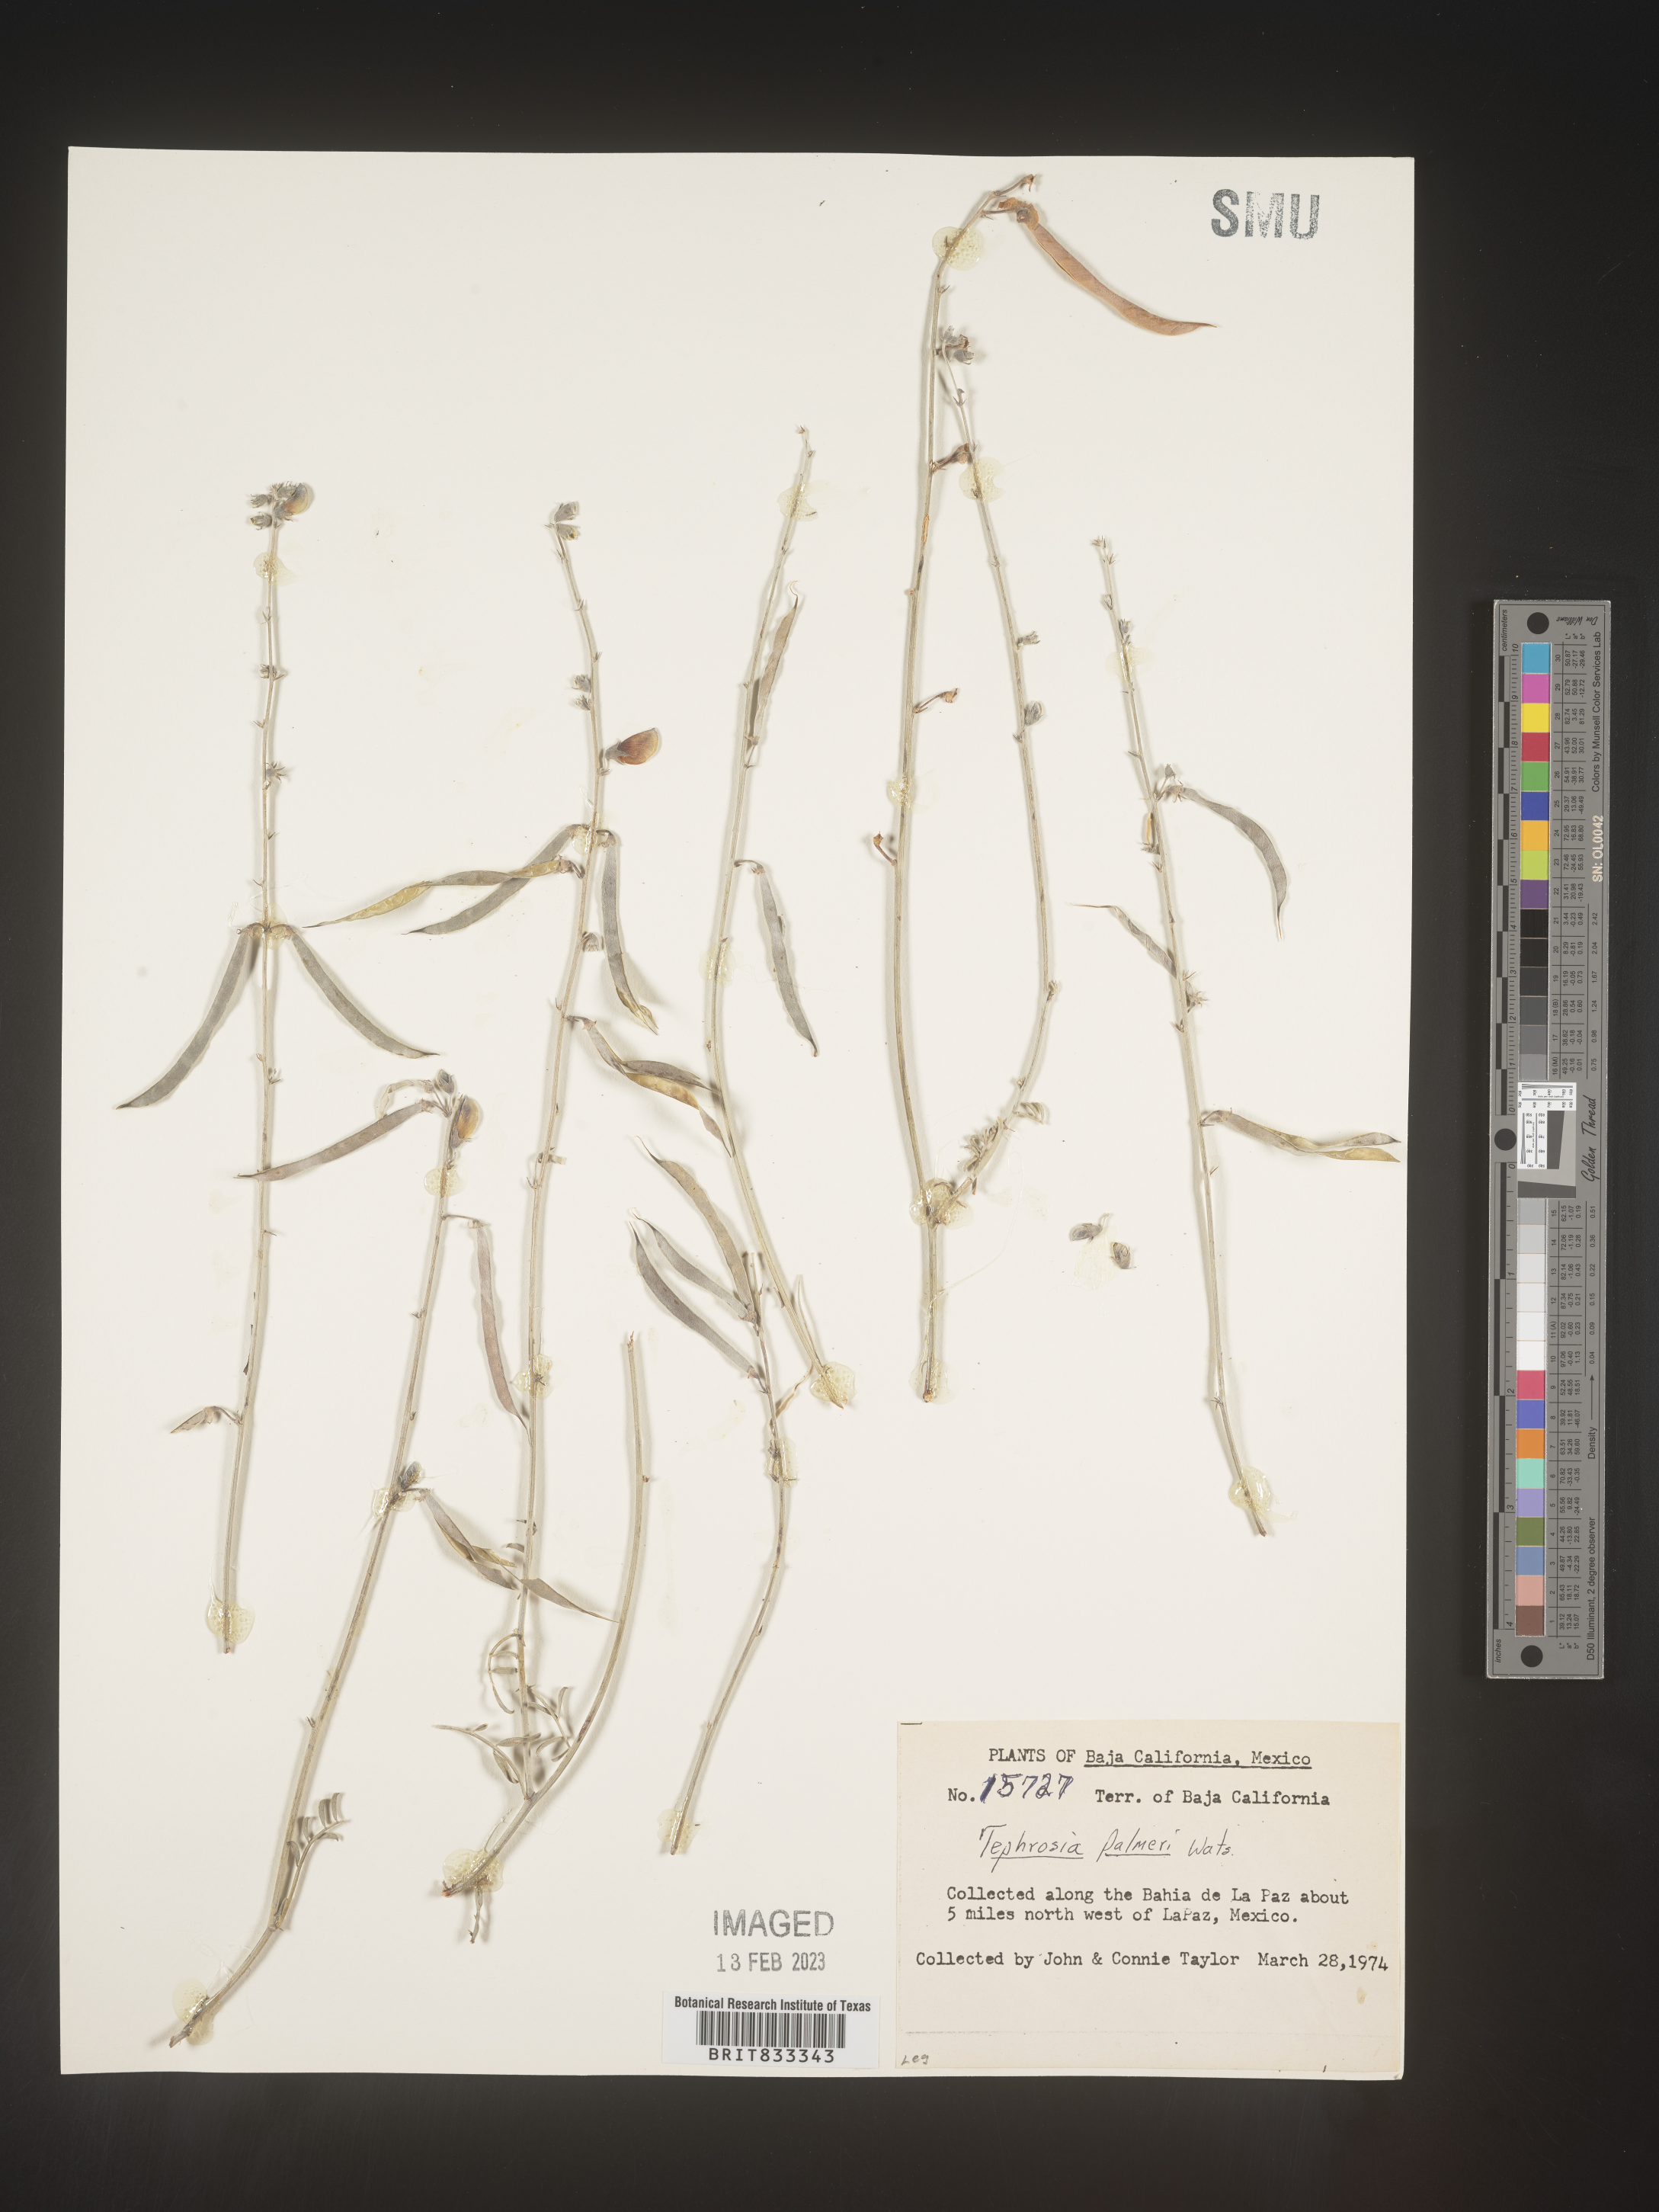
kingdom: Plantae
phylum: Tracheophyta
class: Magnoliopsida
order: Fabales
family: Fabaceae
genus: Tephrosia
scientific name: Tephrosia
